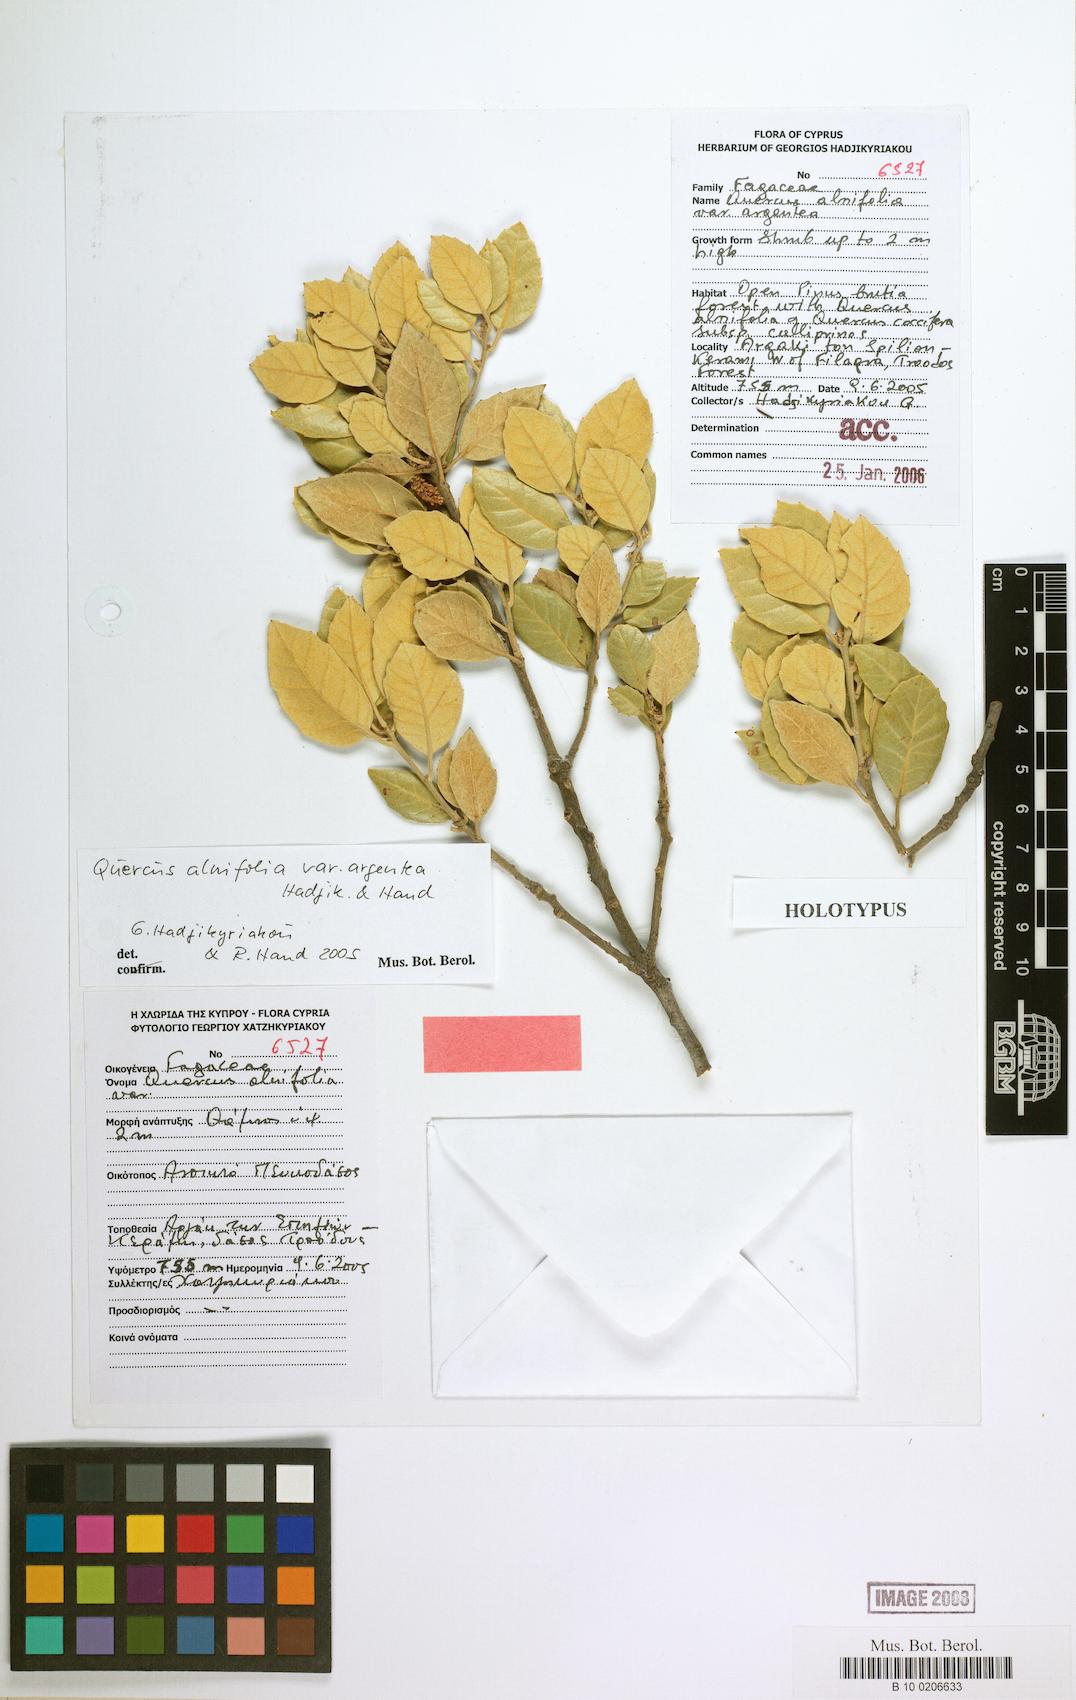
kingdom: Plantae
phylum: Tracheophyta
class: Magnoliopsida
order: Fagales
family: Fagaceae
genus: Quercus
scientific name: Quercus alnifolia
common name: Golden oak
